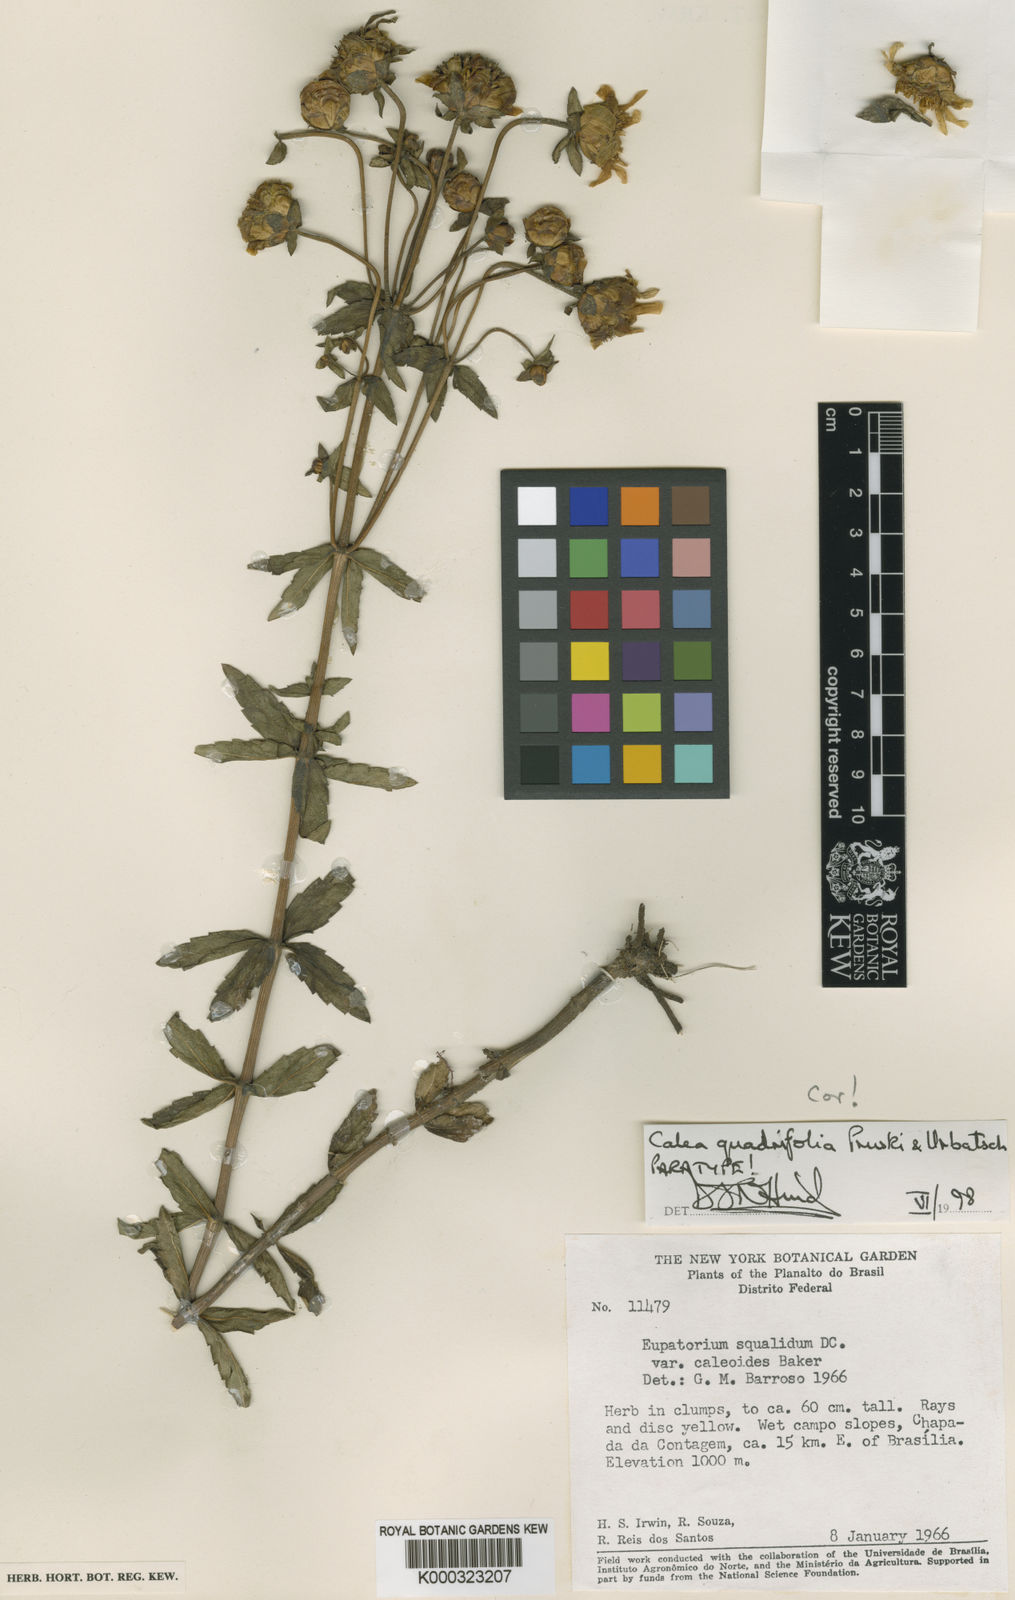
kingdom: Plantae
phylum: Tracheophyta
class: Magnoliopsida
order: Asterales
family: Asteraceae
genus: Calea
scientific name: Calea quadrifolia
